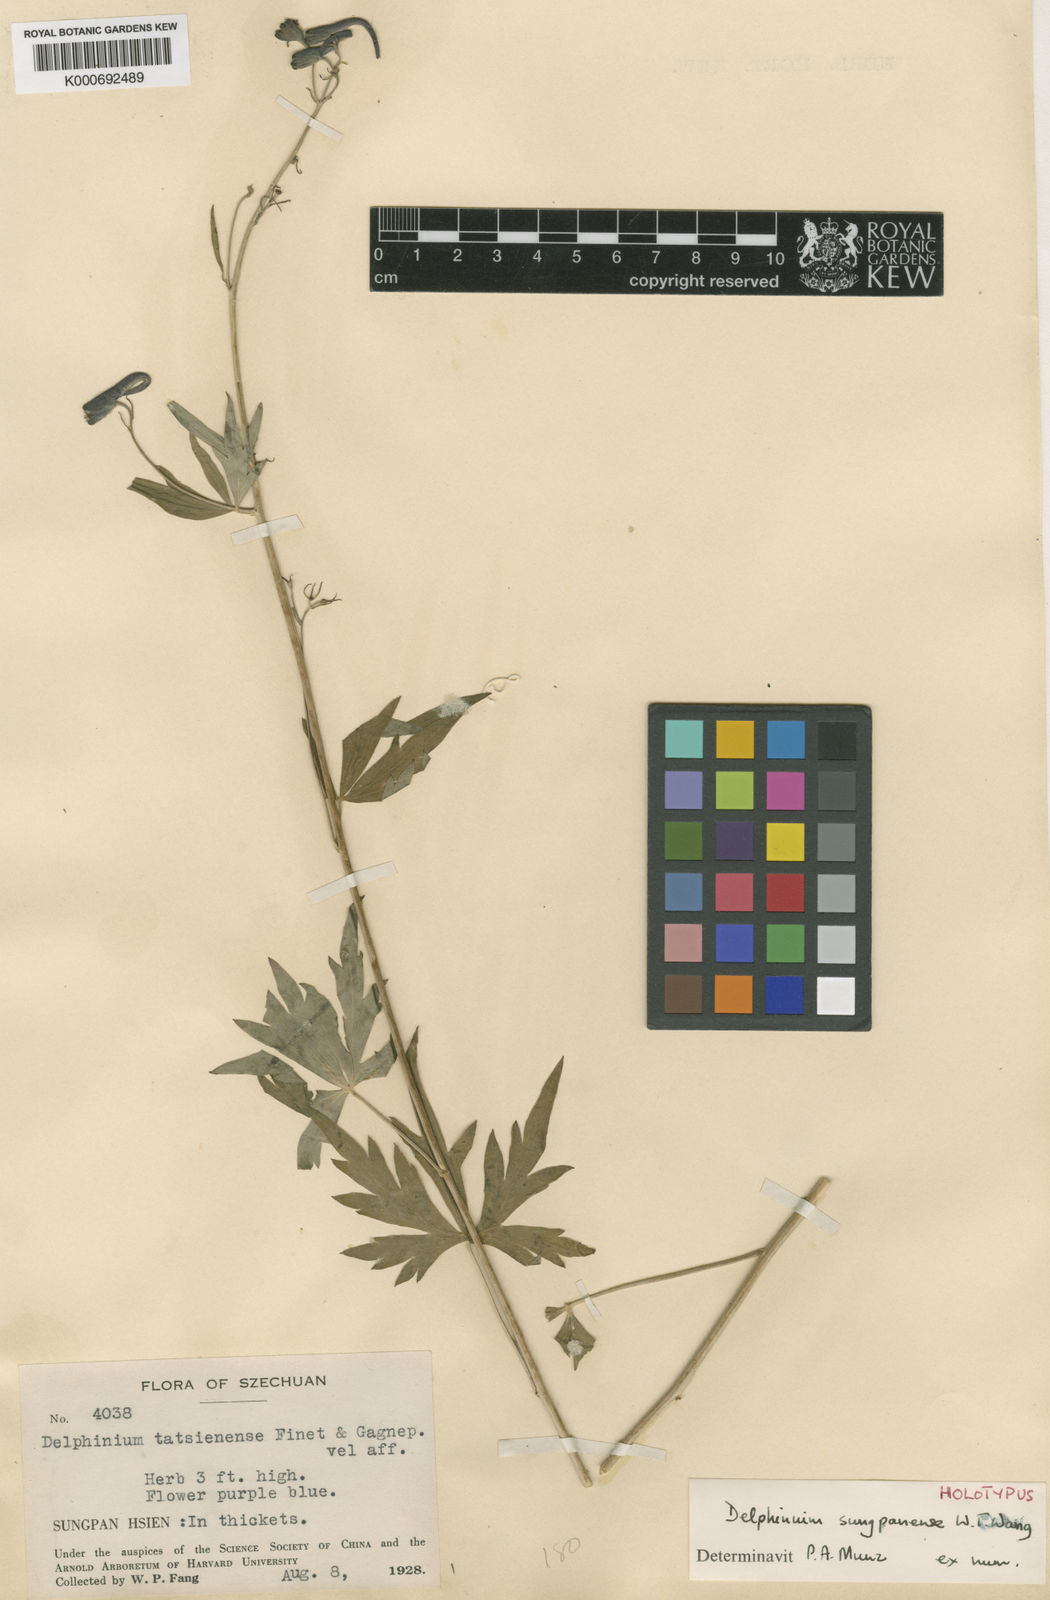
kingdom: Plantae
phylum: Tracheophyta
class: Magnoliopsida
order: Ranunculales
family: Ranunculaceae
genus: Delphinium
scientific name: Delphinium sutchuenense
